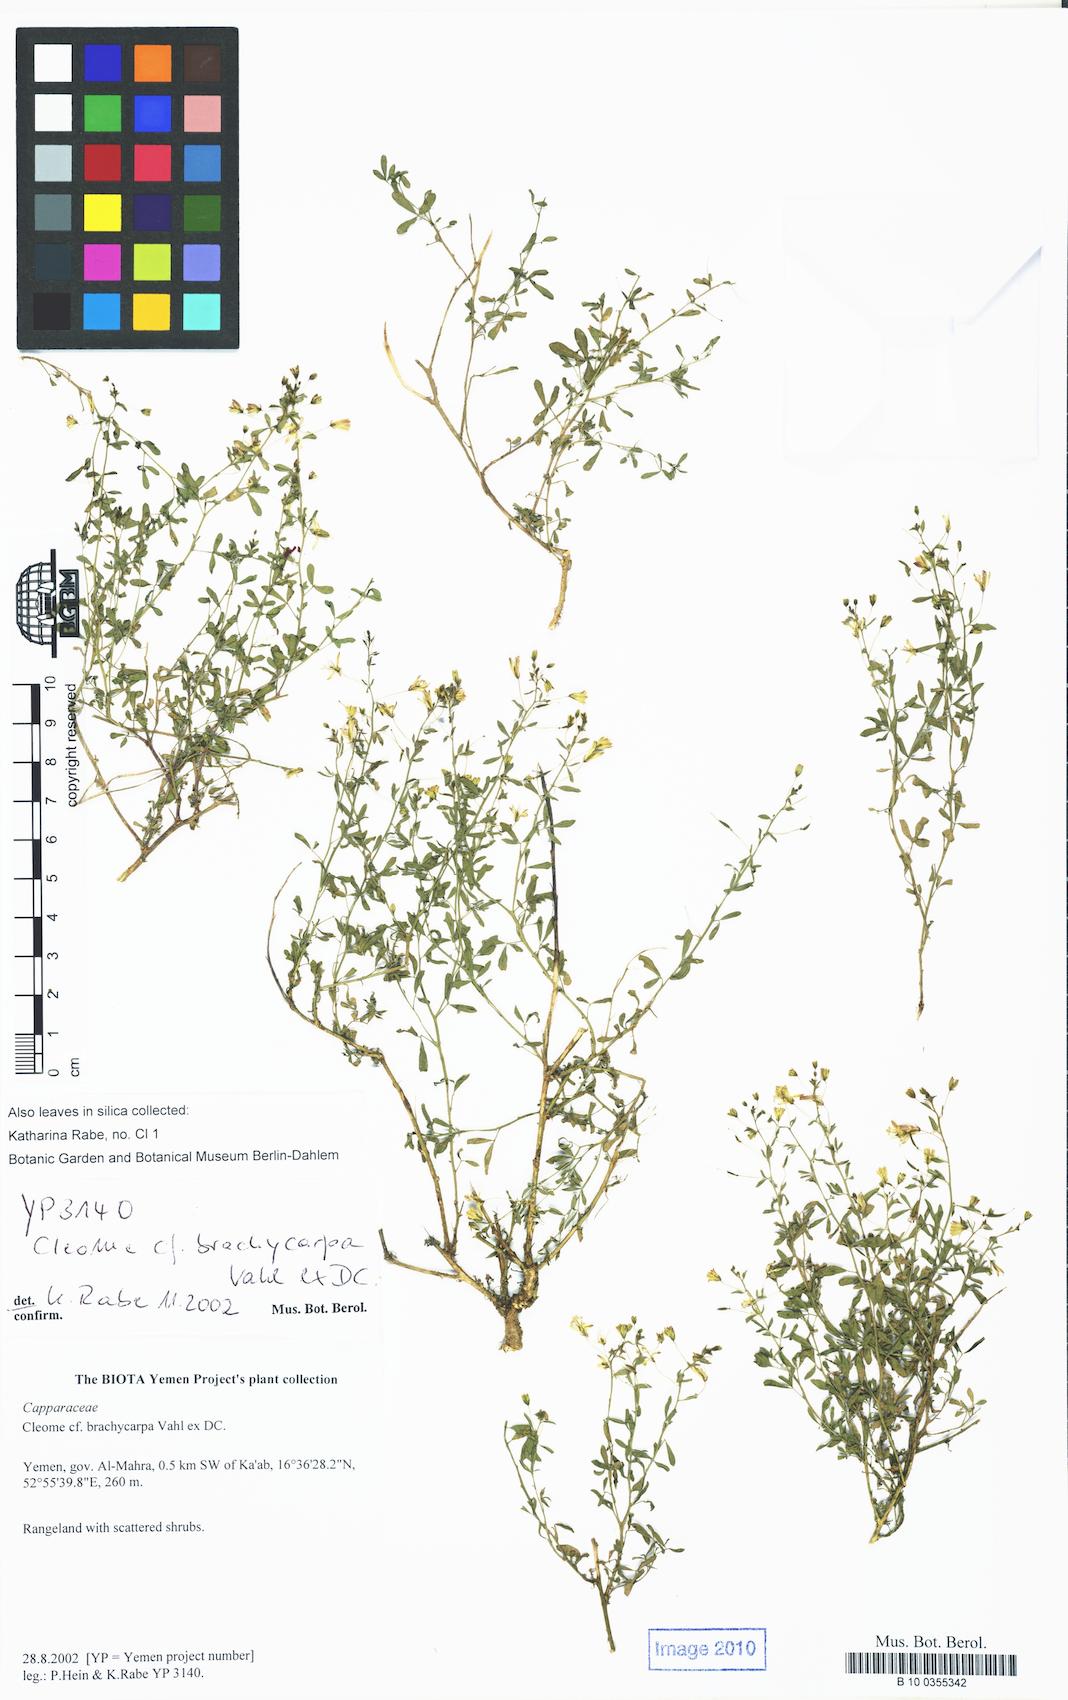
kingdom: Plantae
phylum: Tracheophyta
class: Magnoliopsida
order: Brassicales
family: Cleomaceae
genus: Stylidocleome
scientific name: Stylidocleome brachycarpa
